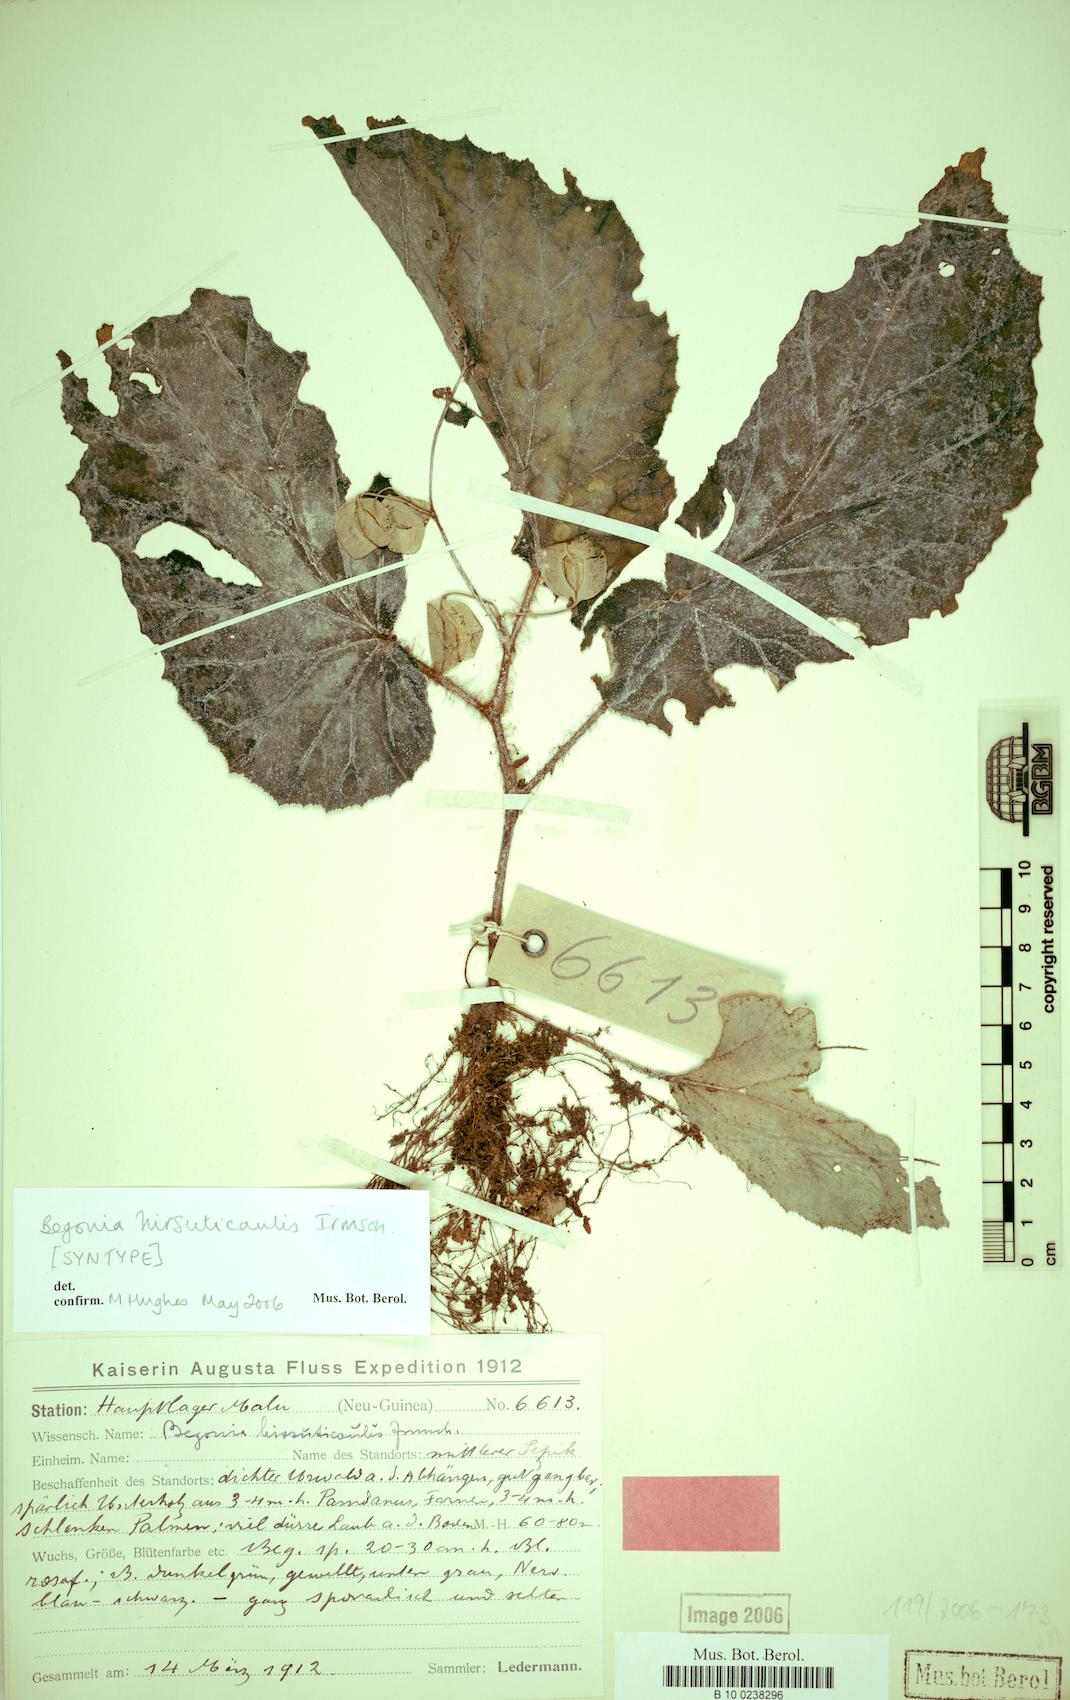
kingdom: Plantae
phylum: Tracheophyta
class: Magnoliopsida
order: Cucurbitales
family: Begoniaceae
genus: Begonia
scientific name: Begonia hirsuticaulis
